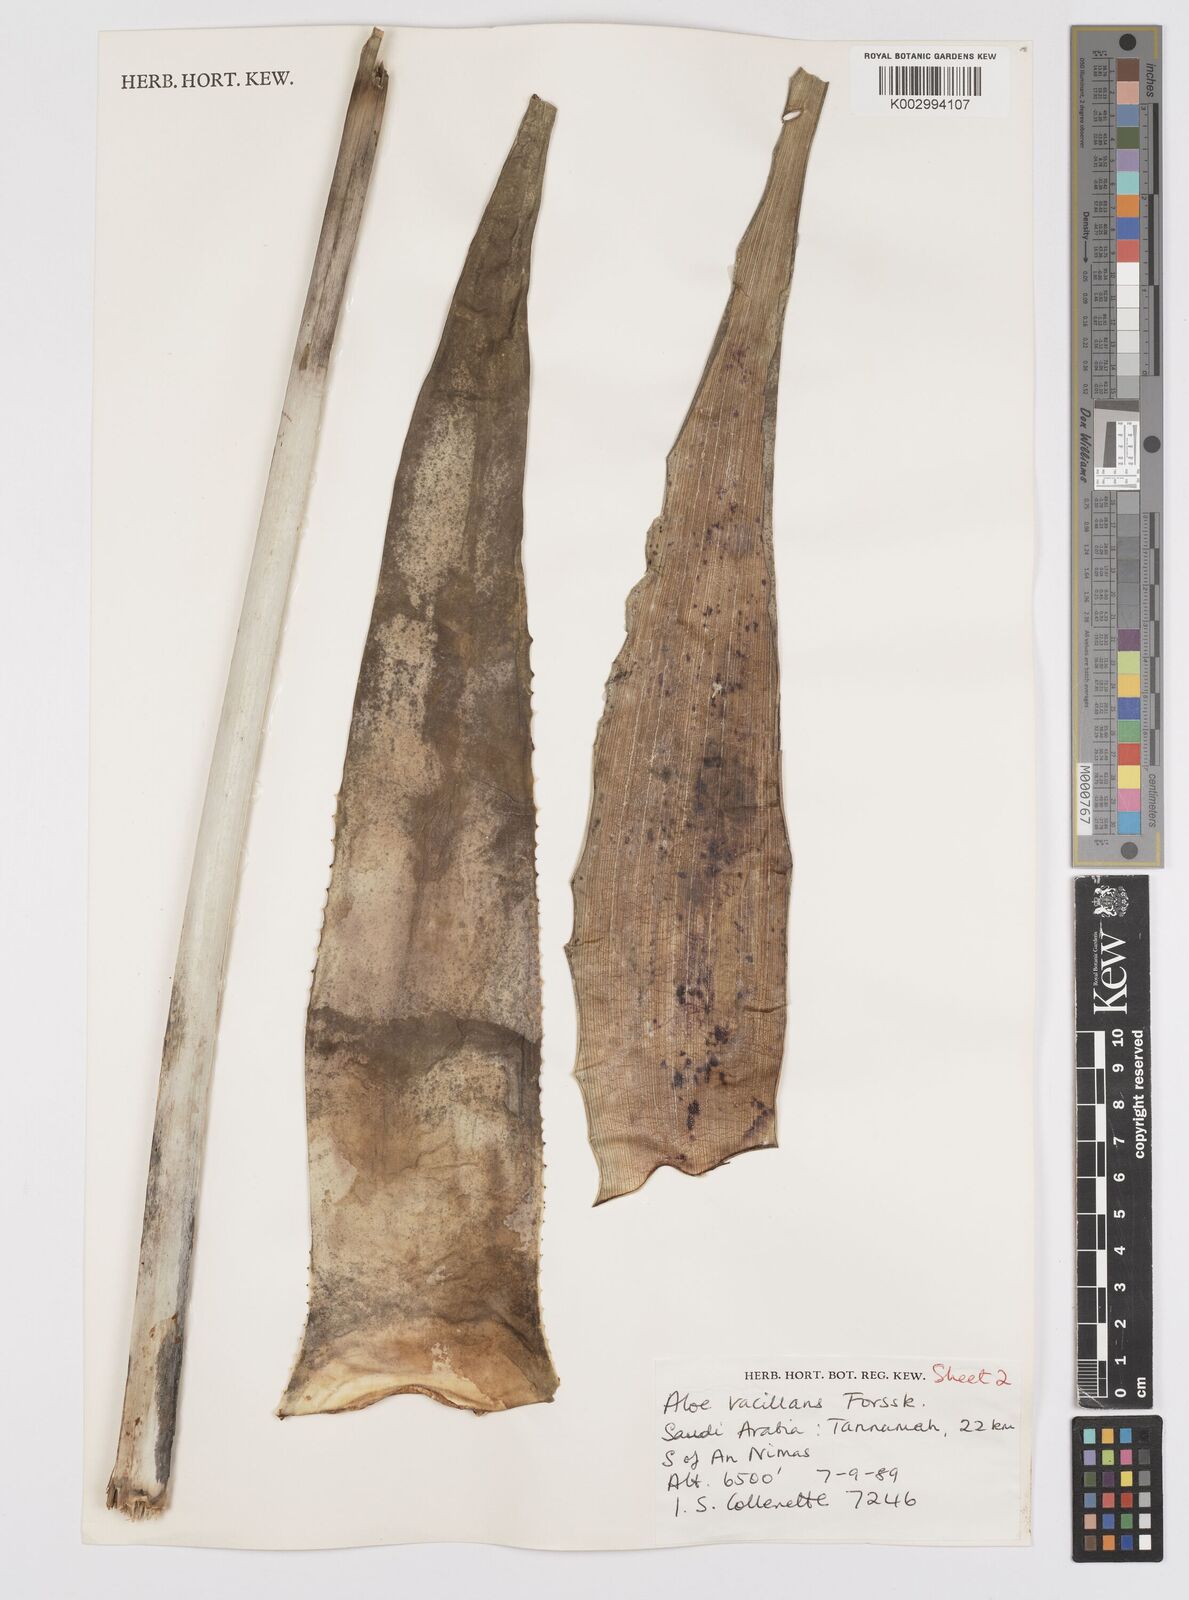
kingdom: Plantae
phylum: Tracheophyta
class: Liliopsida
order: Asparagales
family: Asphodelaceae
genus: Aloe
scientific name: Aloe vacillans
